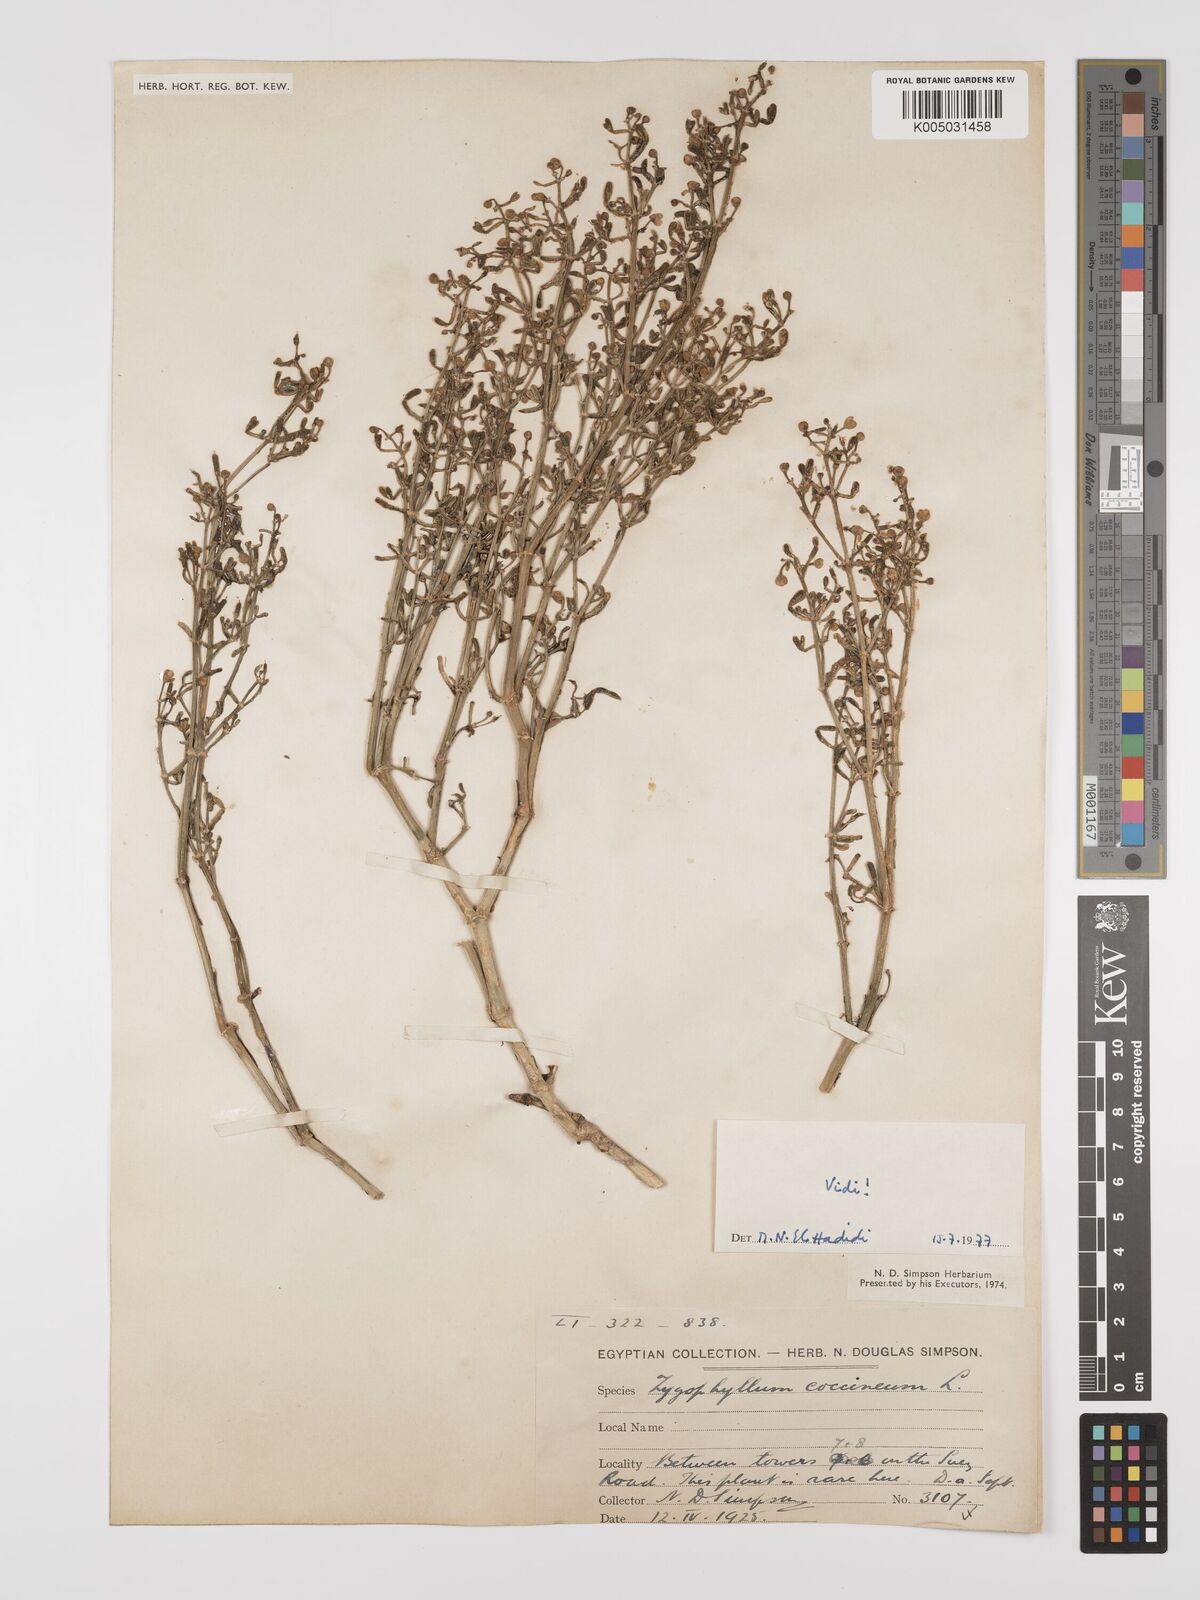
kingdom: Plantae
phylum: Tracheophyta
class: Magnoliopsida
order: Zygophyllales
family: Zygophyllaceae
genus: Zygophyllum
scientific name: Zygophyllum
